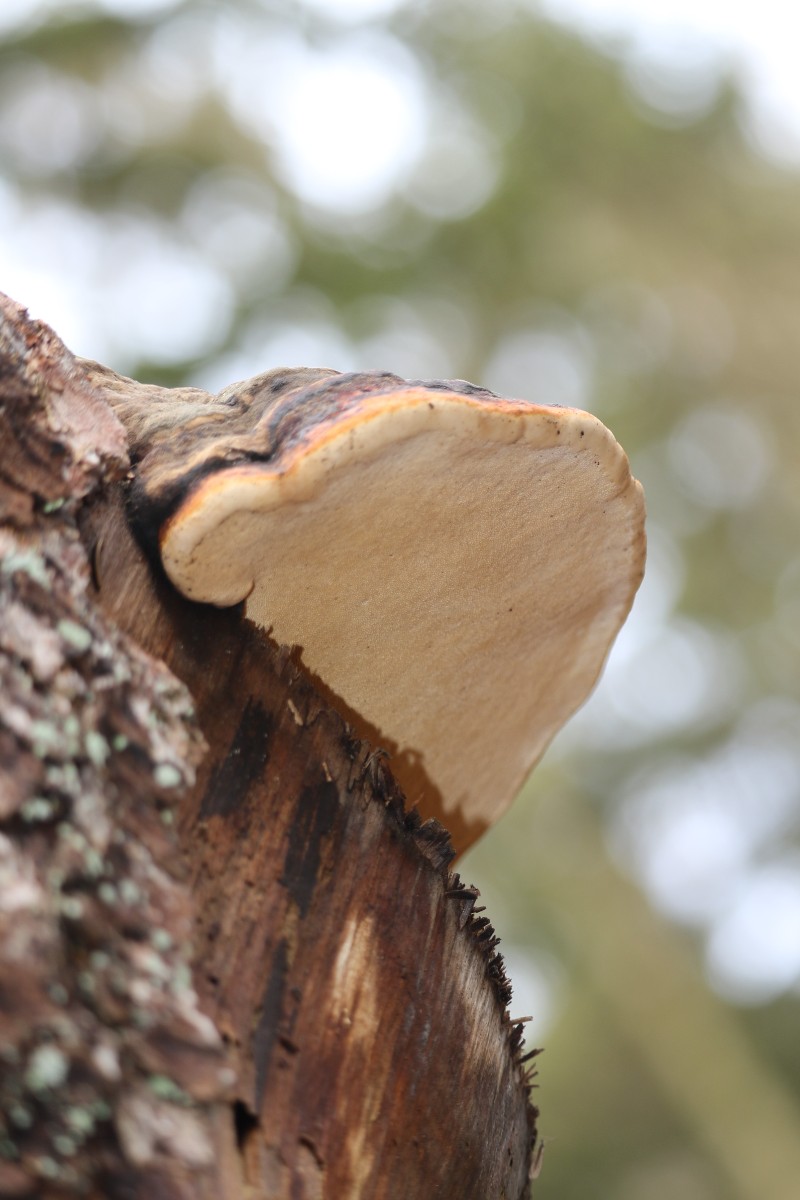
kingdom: Fungi
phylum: Basidiomycota
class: Agaricomycetes
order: Polyporales
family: Fomitopsidaceae
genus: Fomitopsis
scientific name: Fomitopsis pinicola
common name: randbæltet hovporesvamp
